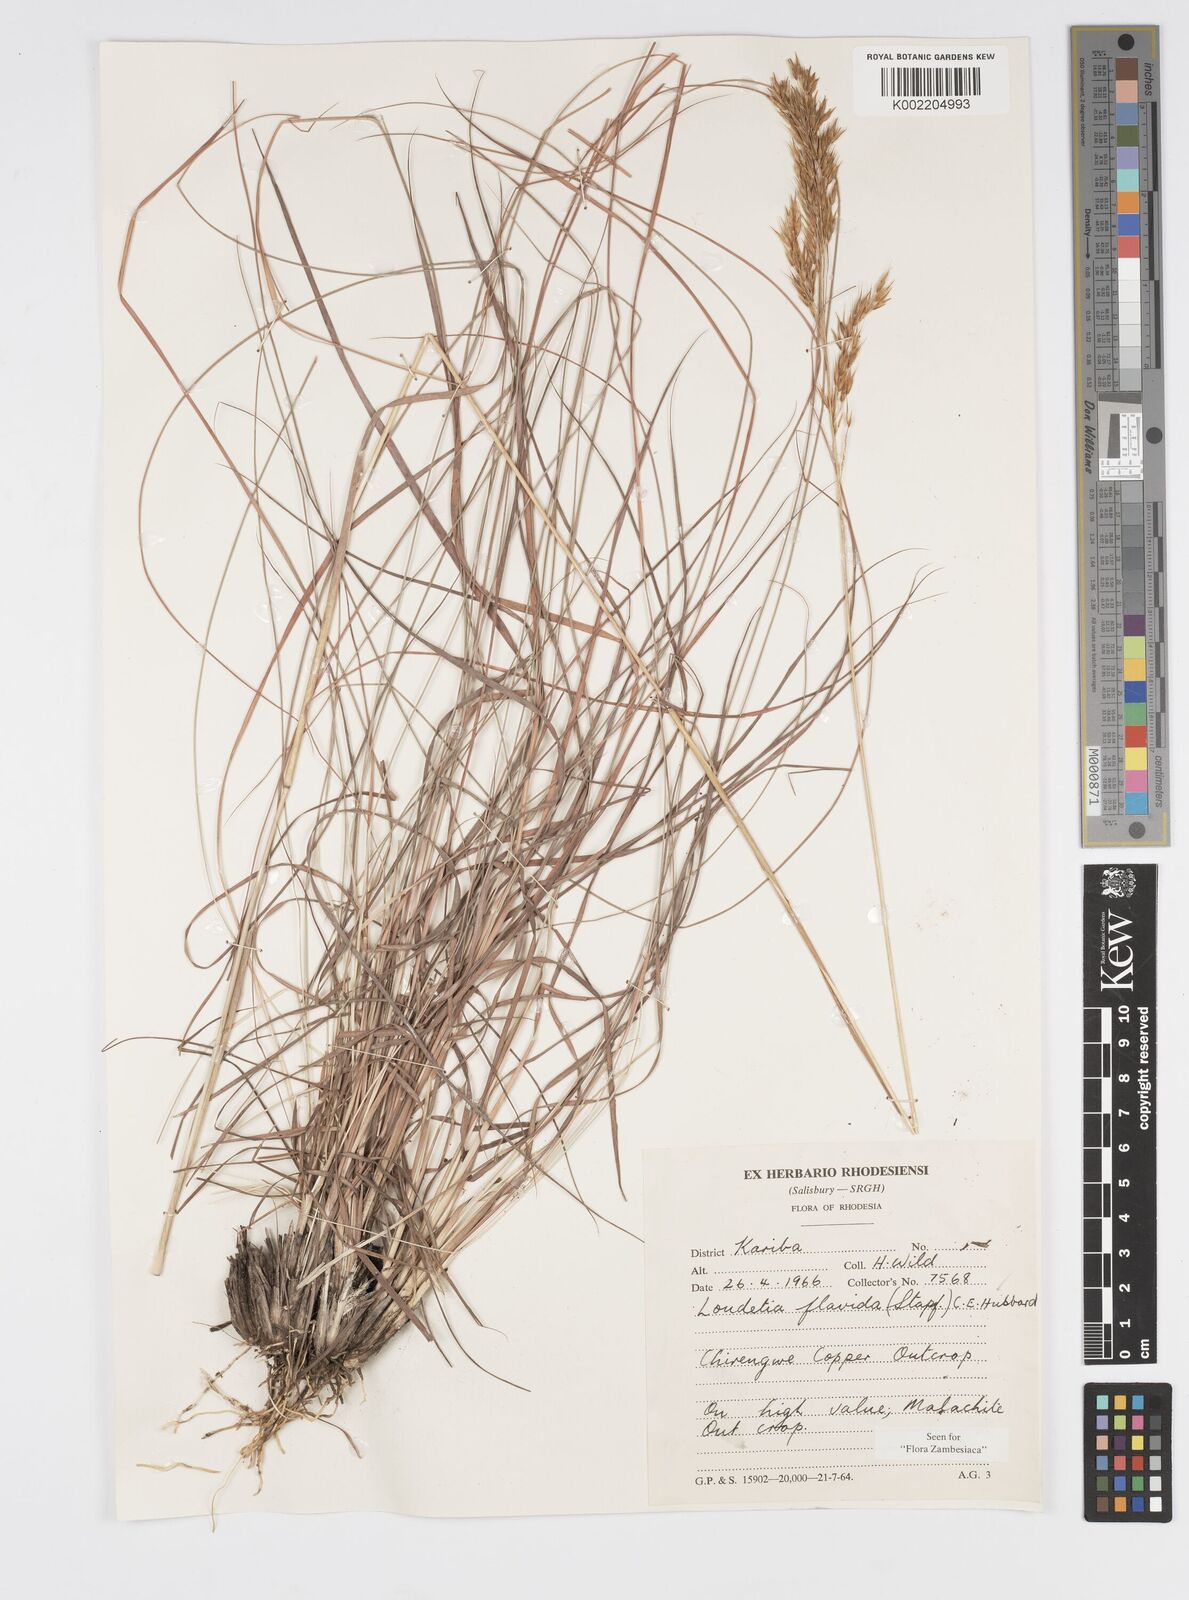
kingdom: Plantae
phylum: Tracheophyta
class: Liliopsida
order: Poales
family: Poaceae
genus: Loudetia
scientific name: Loudetia flavida
